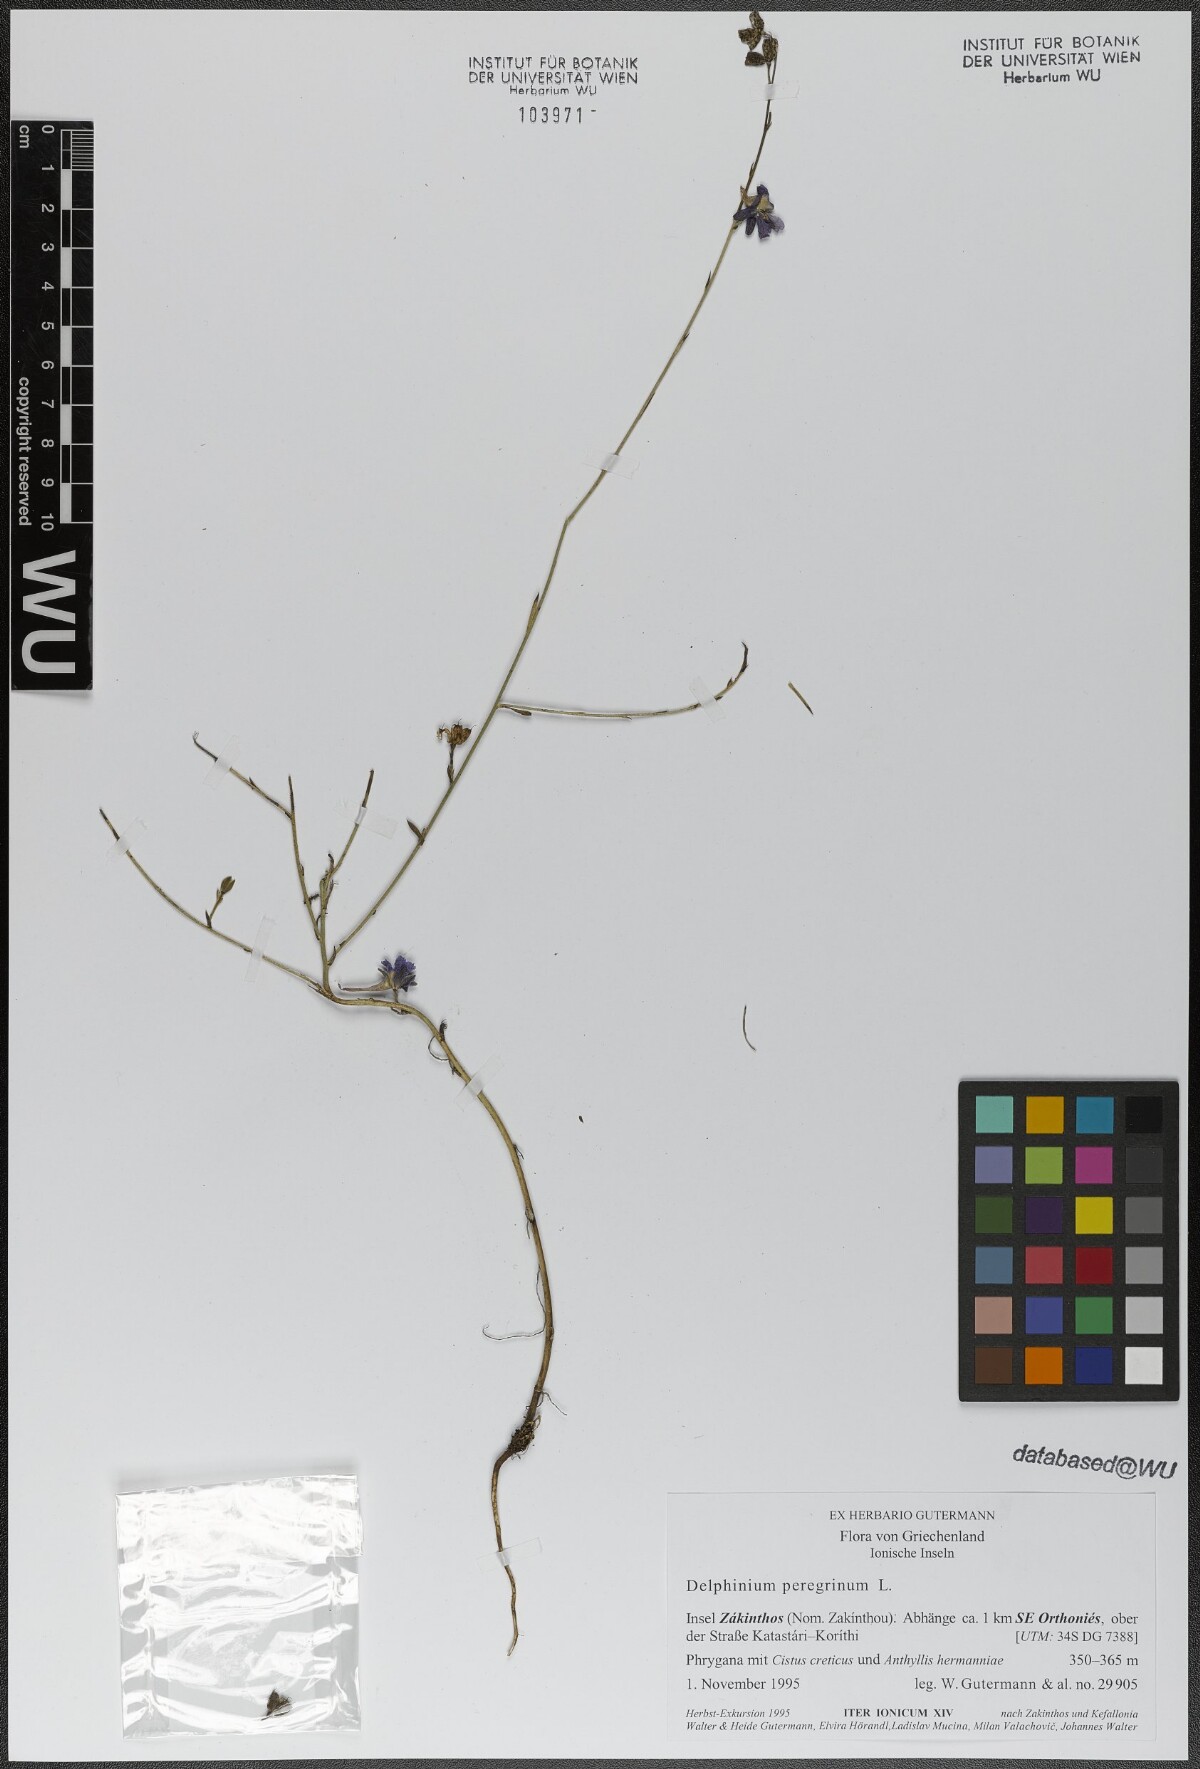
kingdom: Plantae
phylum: Tracheophyta
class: Magnoliopsida
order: Ranunculales
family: Ranunculaceae
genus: Delphinium
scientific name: Delphinium peregrinum
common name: Violet larkspur
